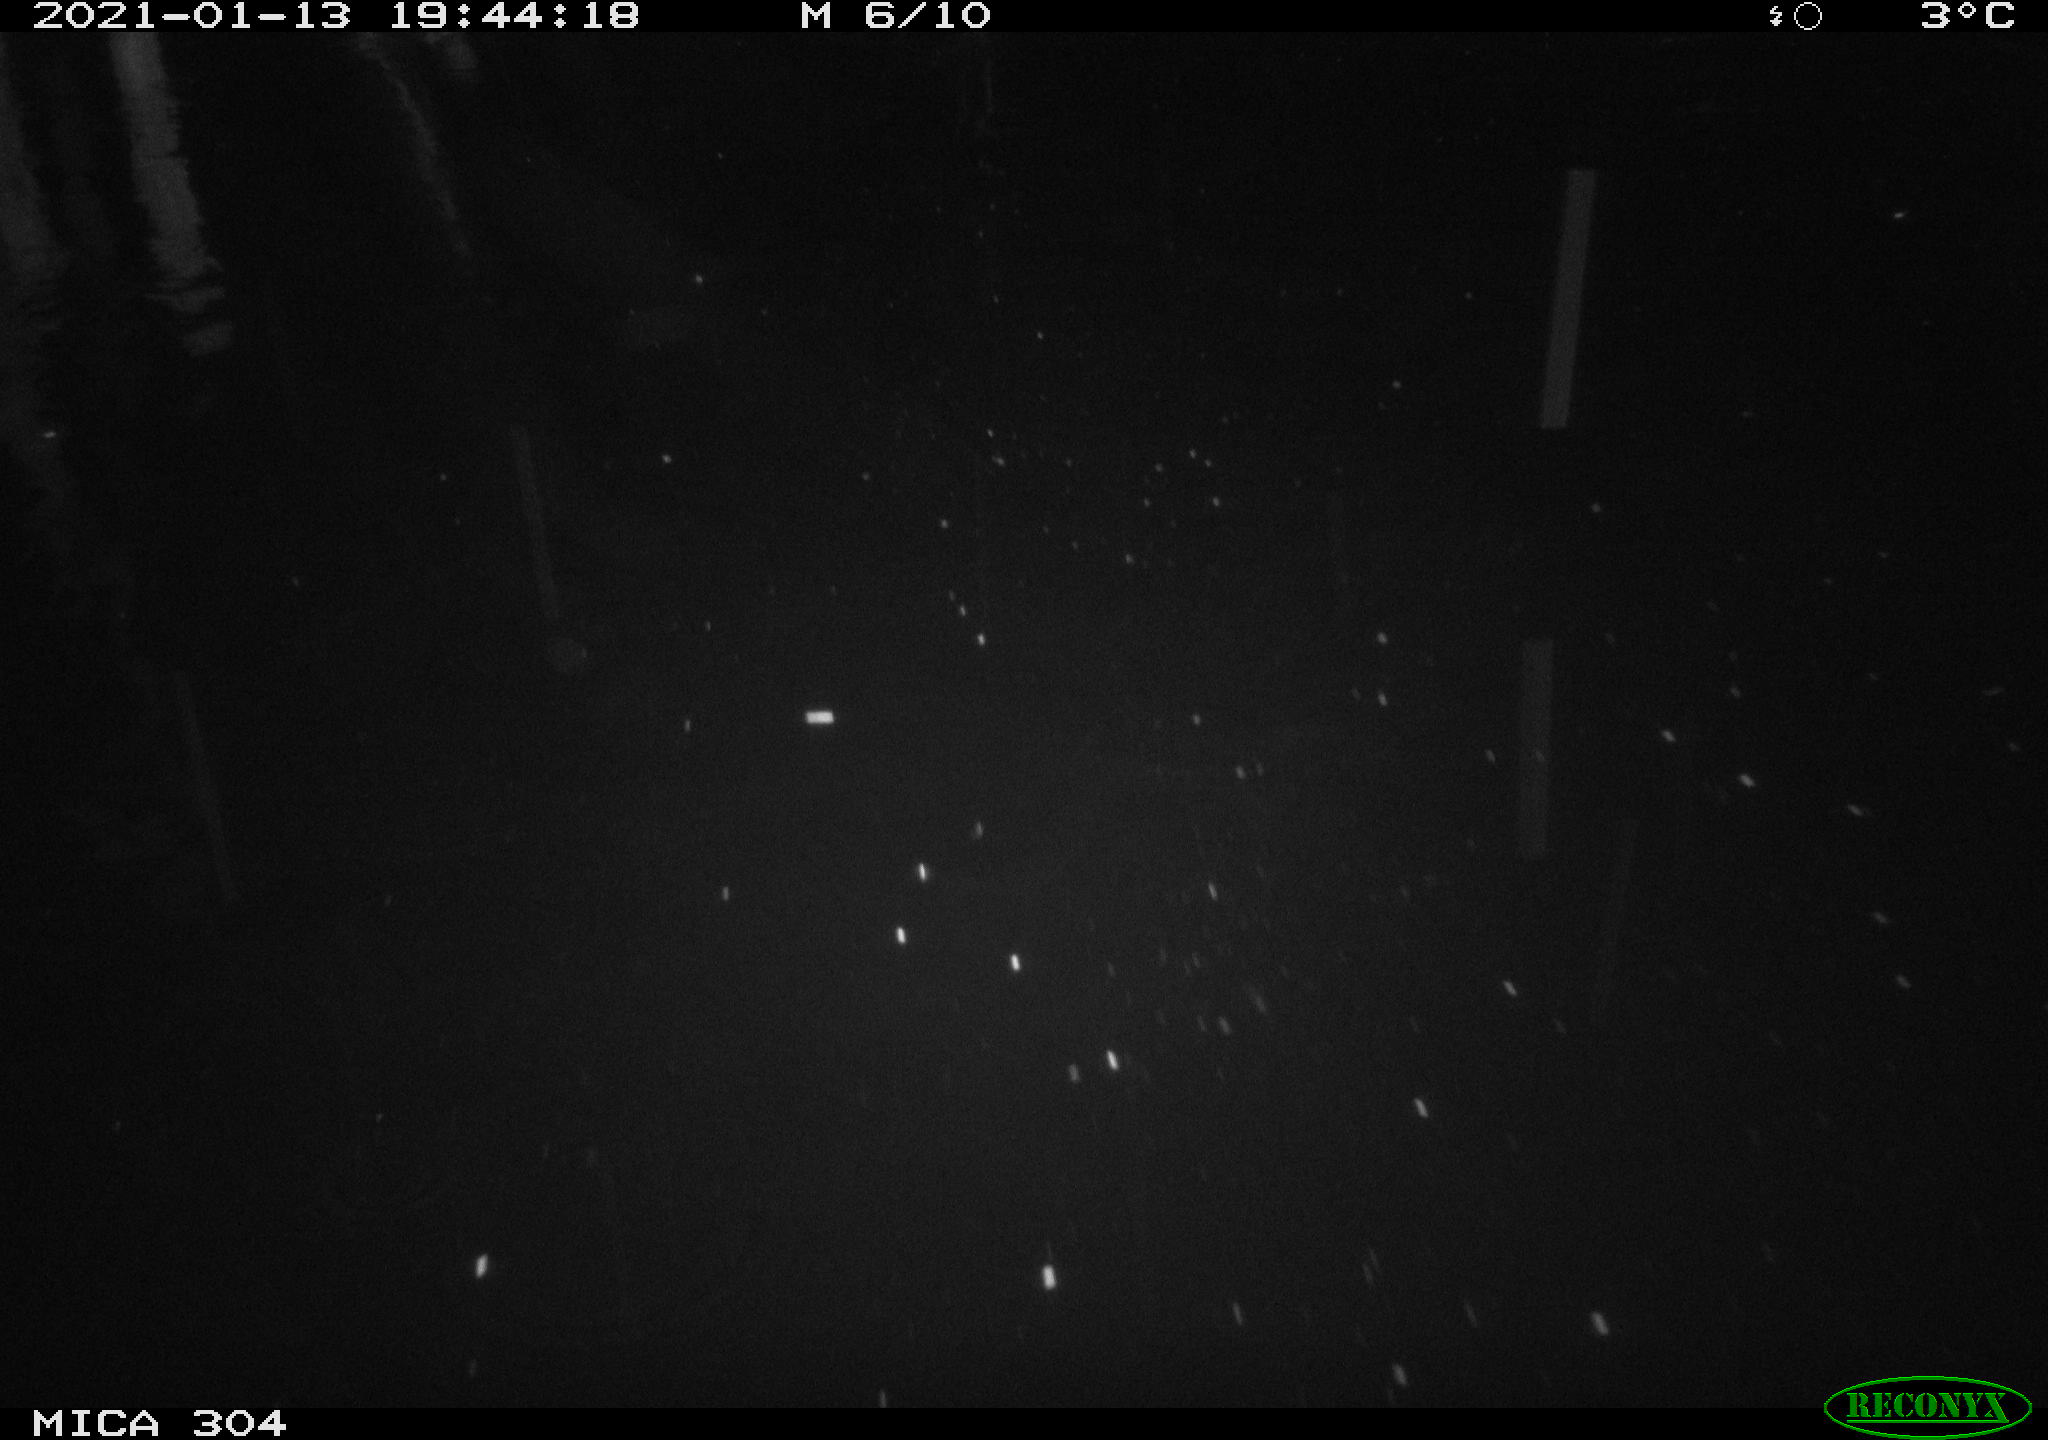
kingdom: Animalia
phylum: Chordata
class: Mammalia
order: Rodentia
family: Muridae
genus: Rattus
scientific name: Rattus norvegicus
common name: Brown rat
